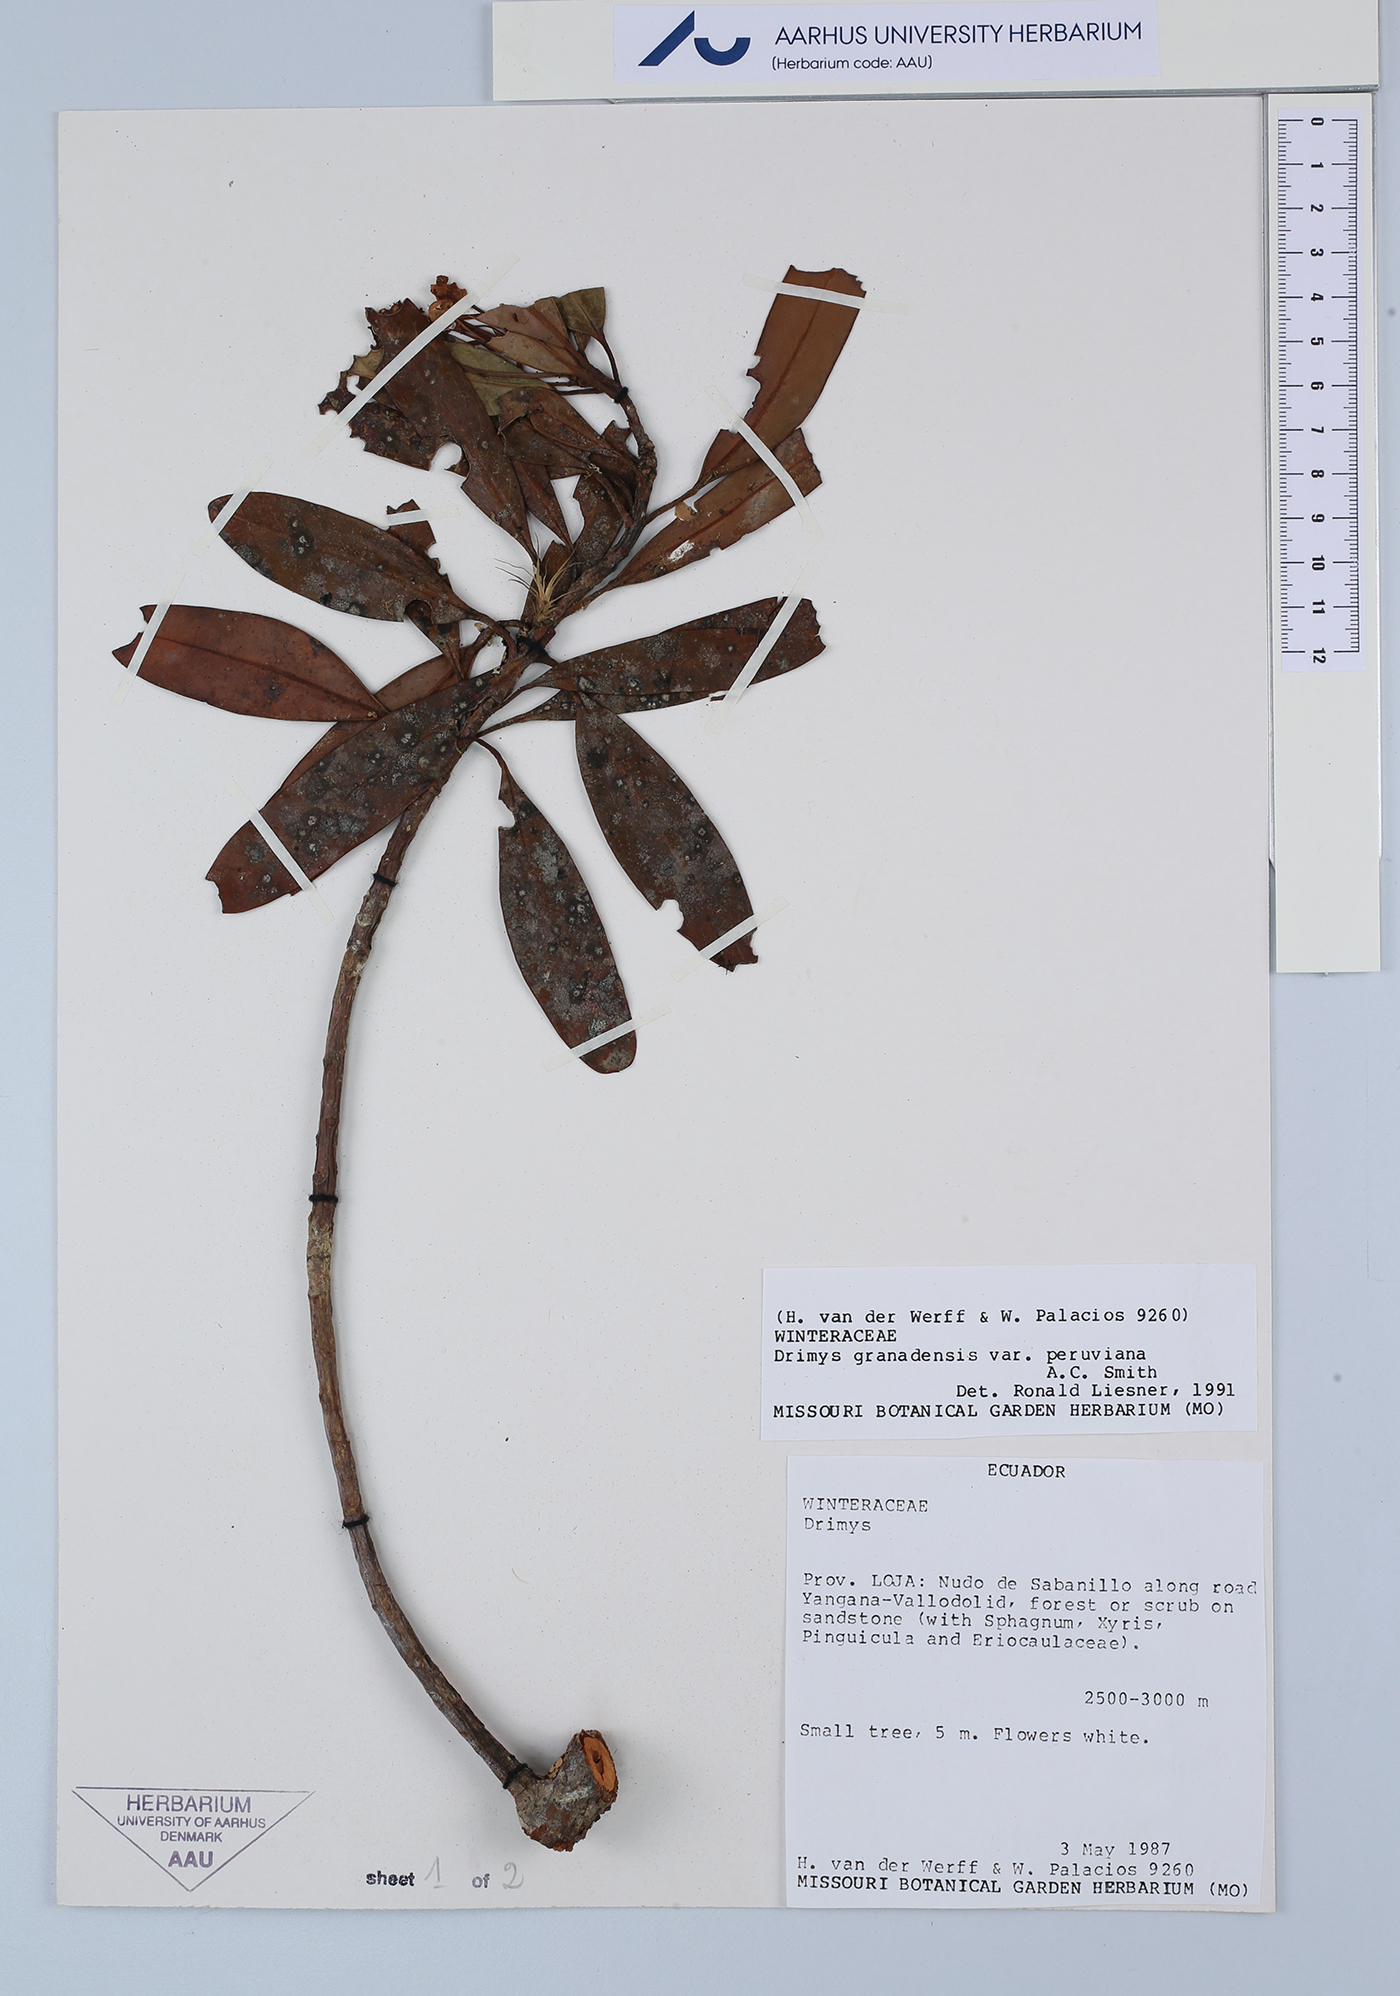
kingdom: Plantae
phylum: Tracheophyta
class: Magnoliopsida
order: Canellales
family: Winteraceae
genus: Drimys
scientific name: Drimys granadensis
